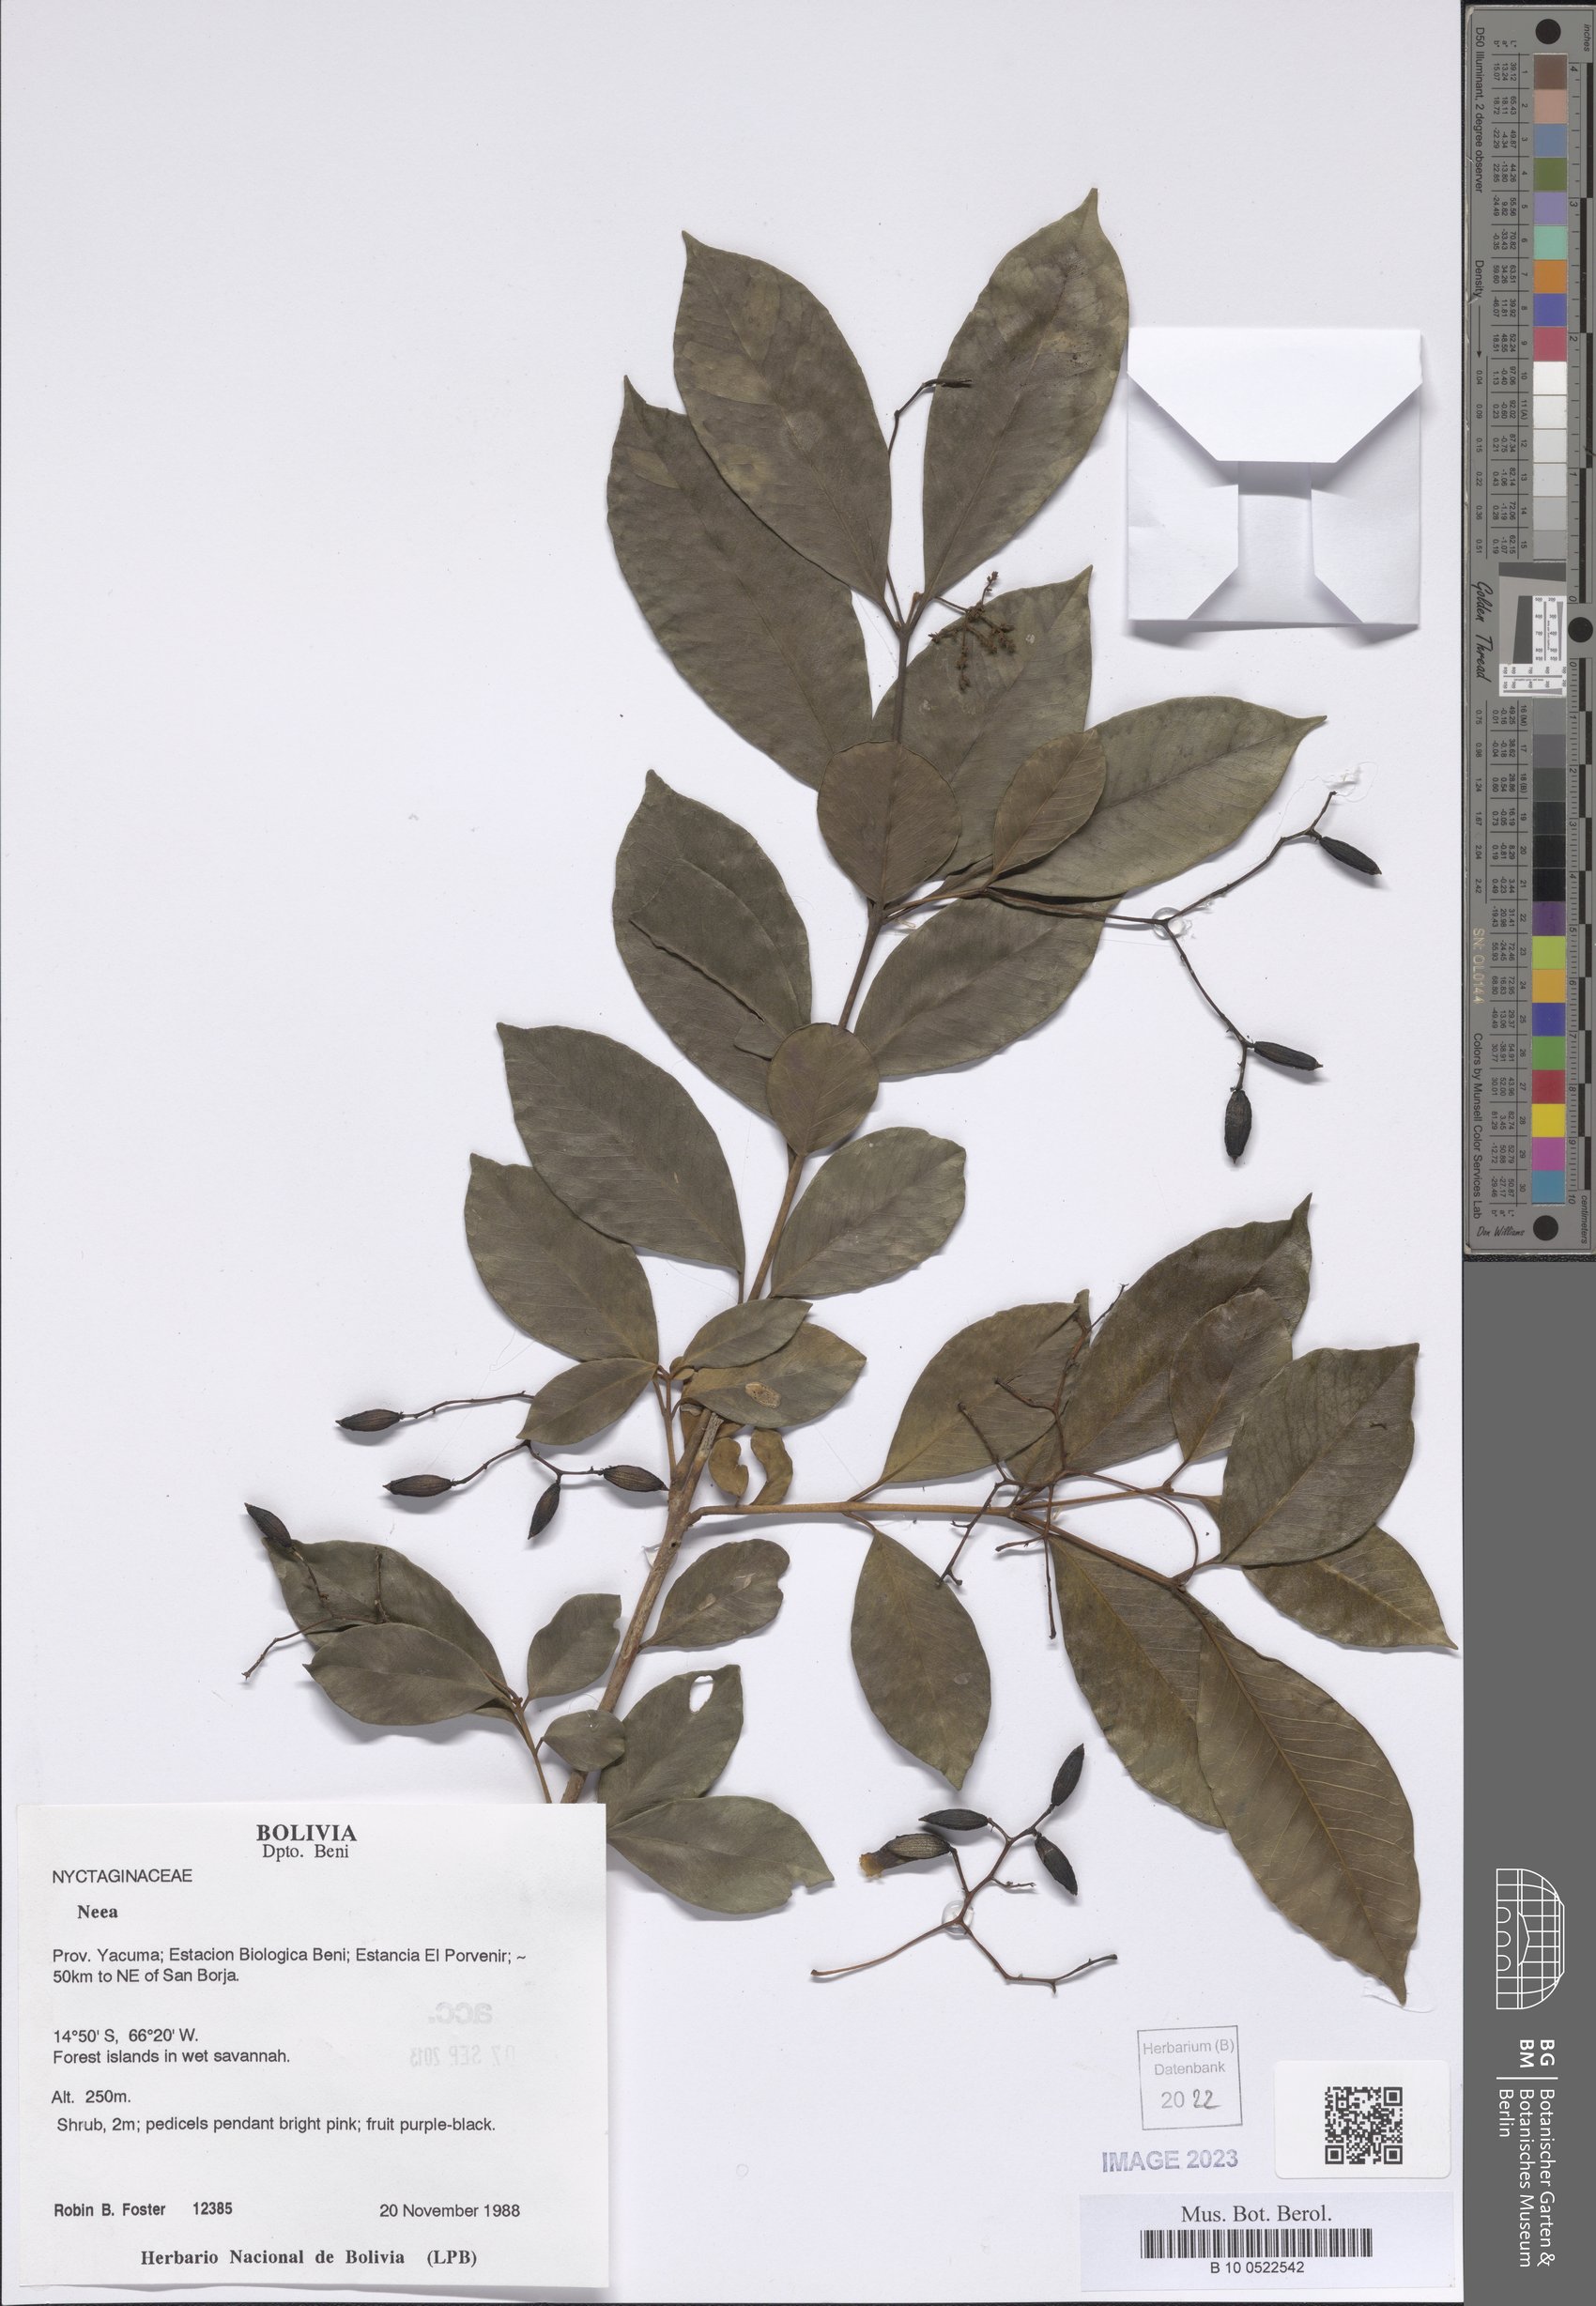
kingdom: Plantae
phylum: Tracheophyta
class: Magnoliopsida
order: Caryophyllales
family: Nyctaginaceae
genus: Neea
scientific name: Neea
